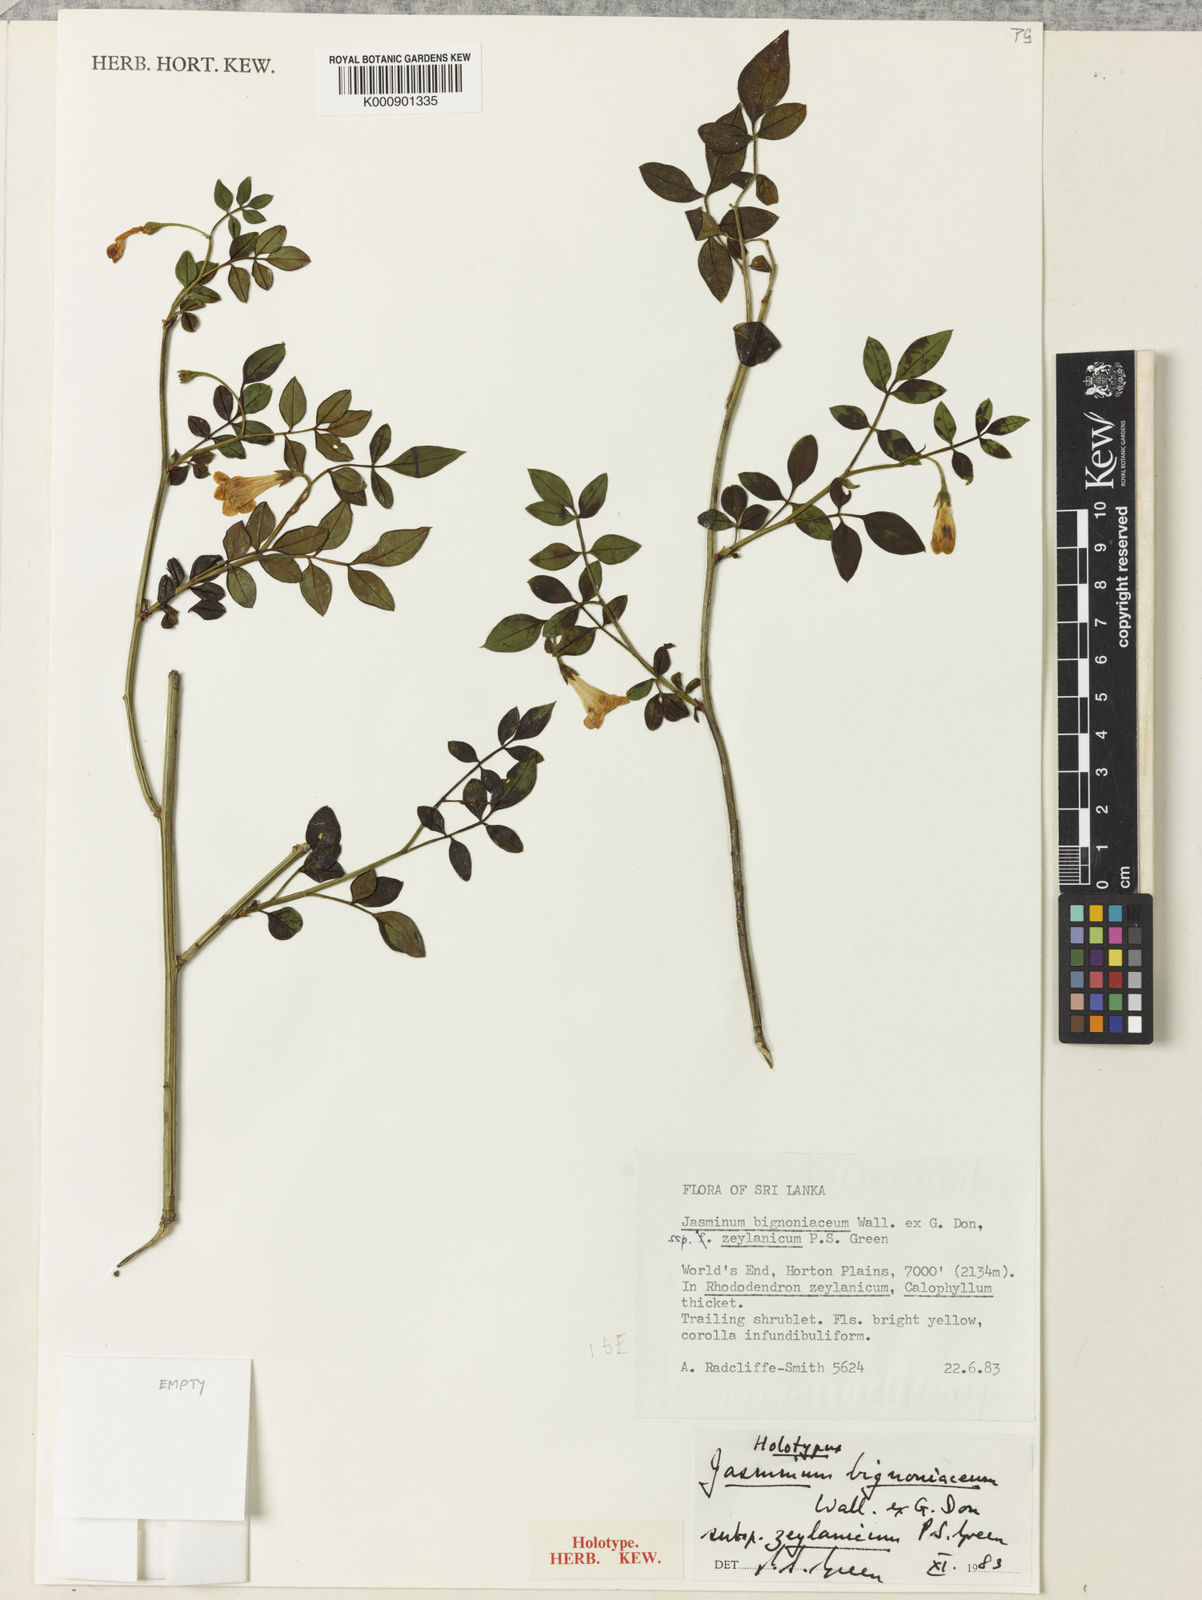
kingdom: Plantae
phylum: Tracheophyta
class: Magnoliopsida
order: Lamiales
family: Oleaceae
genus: Chrysojasminum
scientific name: Chrysojasminum bignoniaceum
